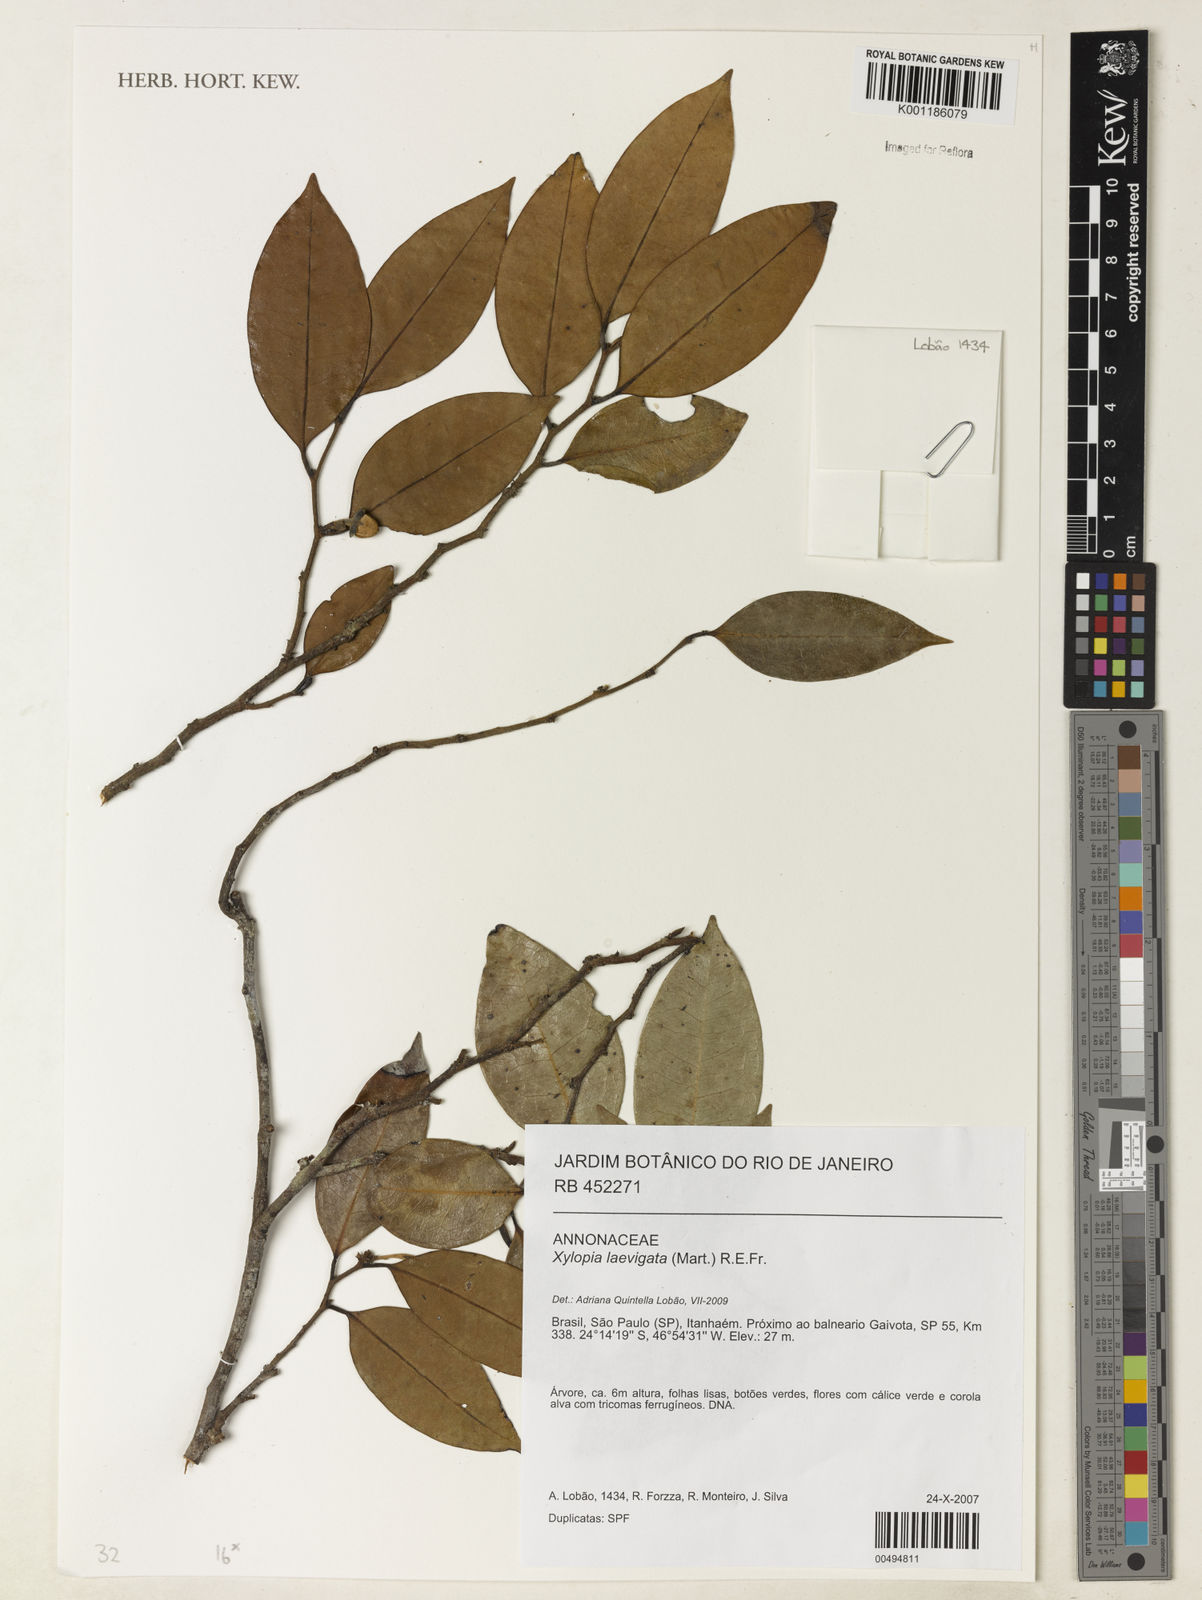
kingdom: Plantae
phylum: Tracheophyta
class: Magnoliopsida
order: Magnoliales
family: Annonaceae
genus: Xylopia
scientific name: Xylopia laevigata
